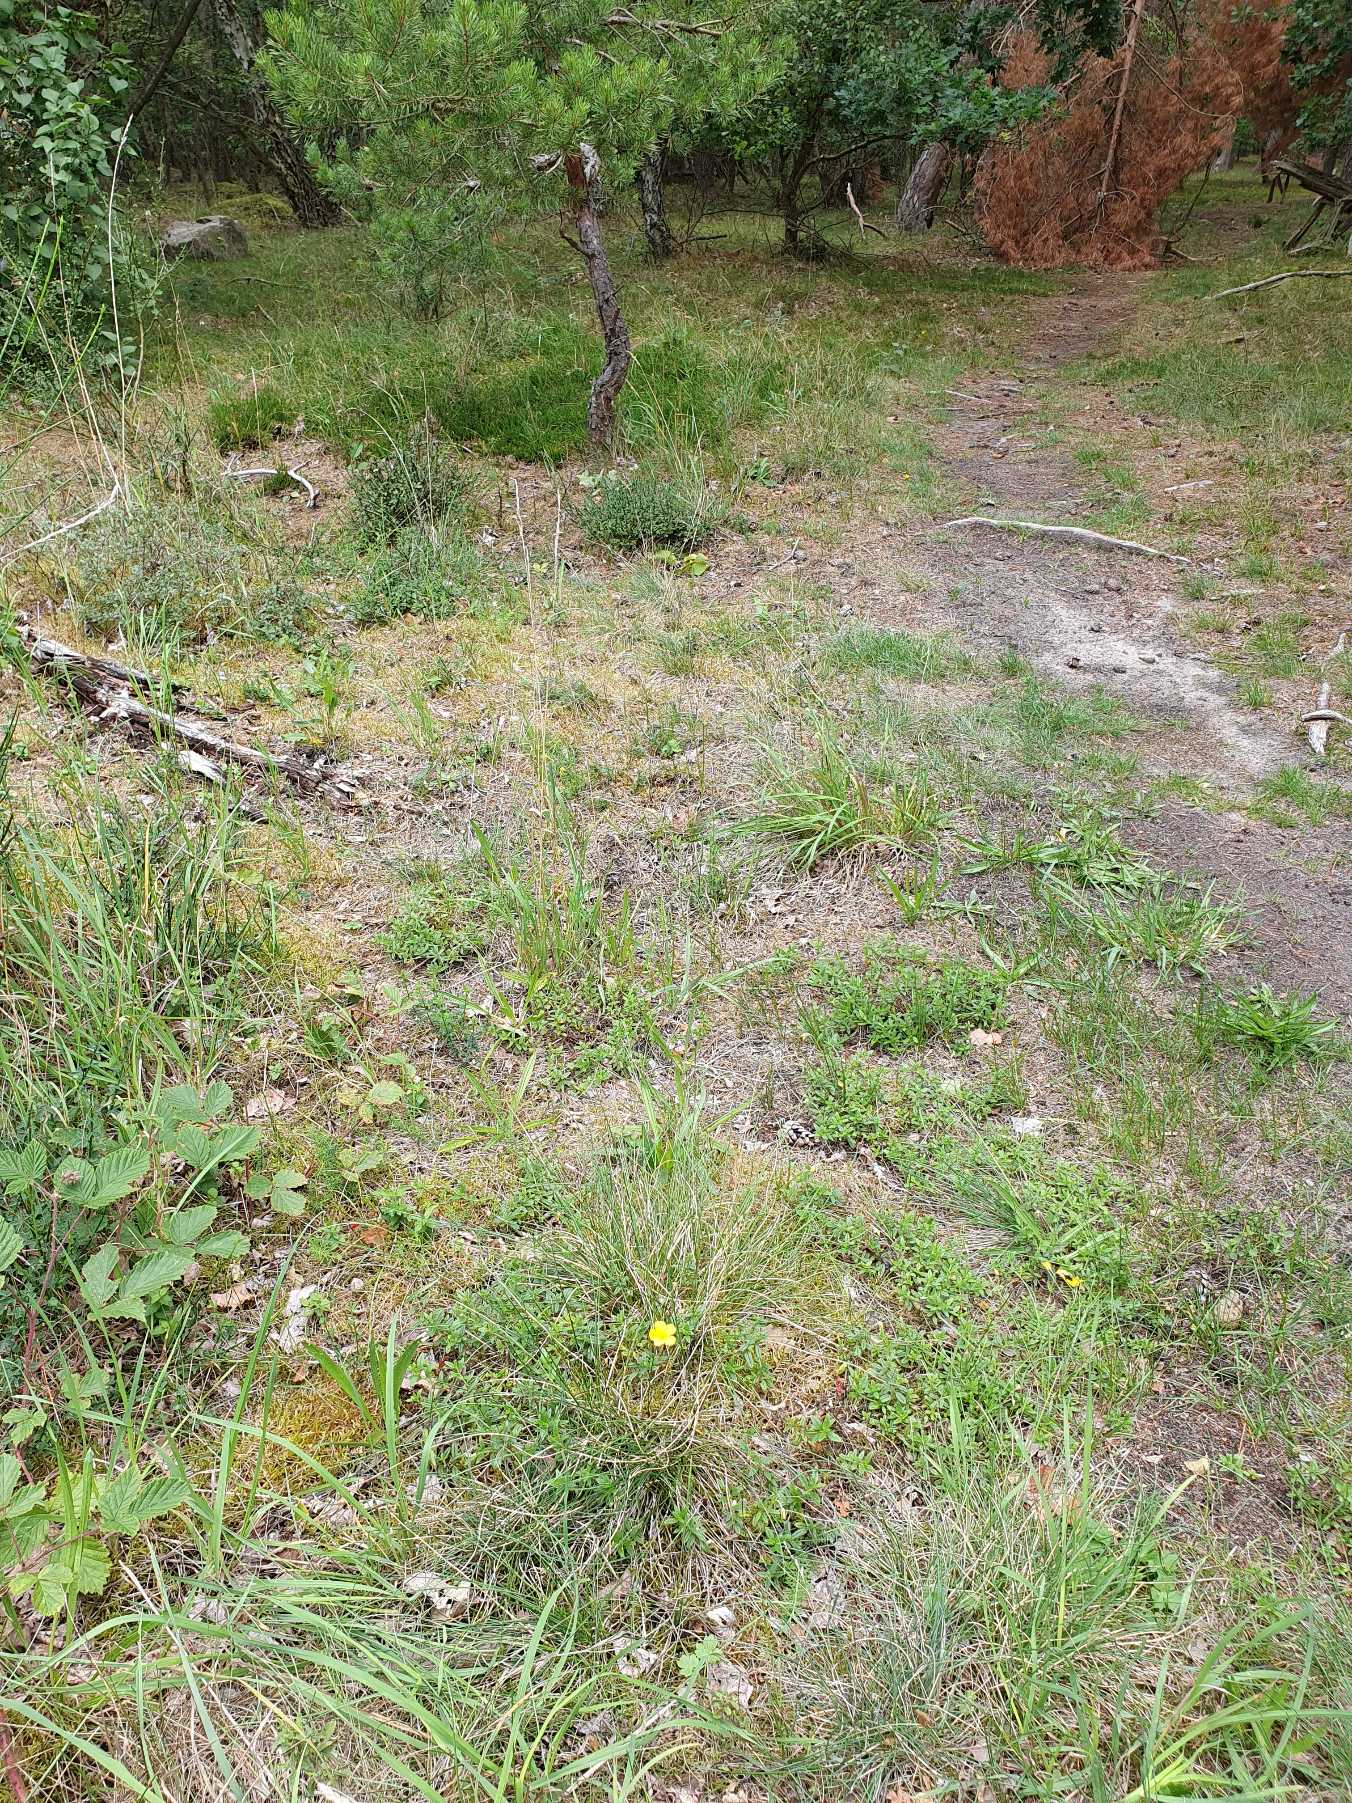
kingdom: Plantae
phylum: Tracheophyta
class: Magnoliopsida
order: Malvales
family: Cistaceae
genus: Helianthemum
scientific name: Helianthemum nummularium
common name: Soløje
